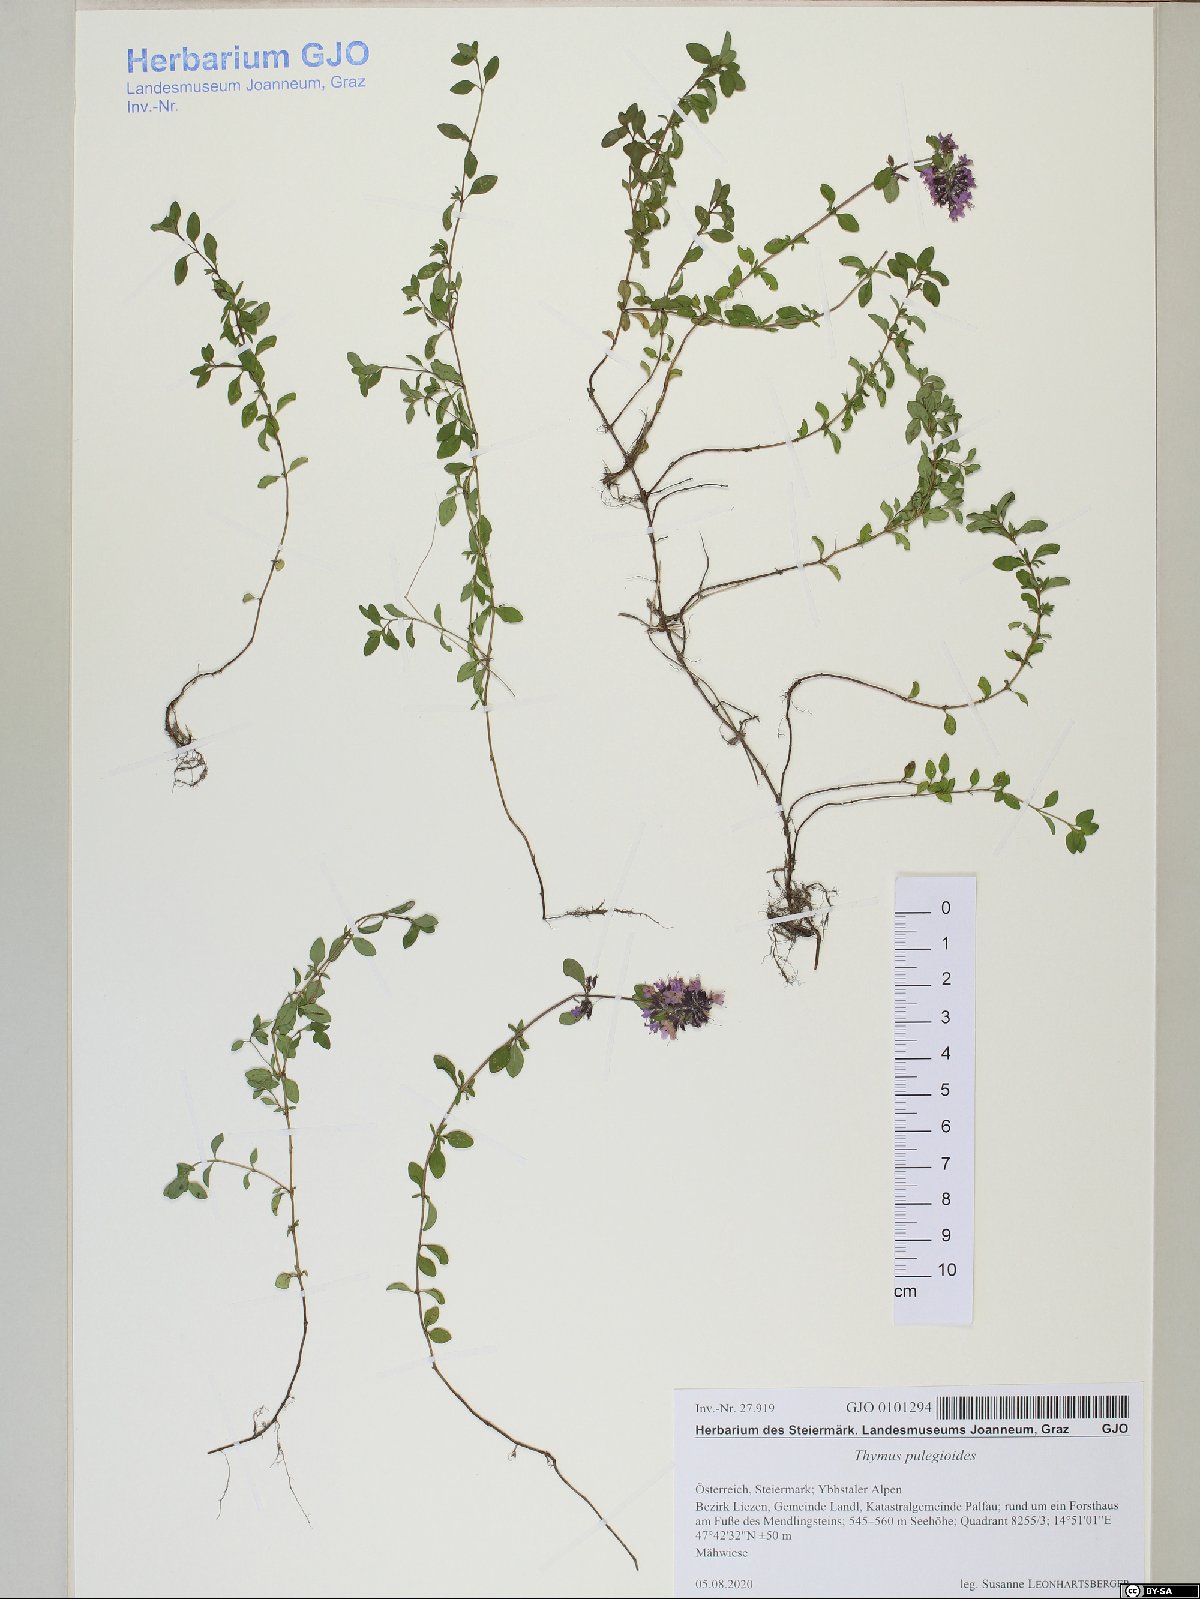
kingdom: Plantae
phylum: Tracheophyta
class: Magnoliopsida
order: Lamiales
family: Lamiaceae
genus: Thymus
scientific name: Thymus pulegioides
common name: Large thyme
